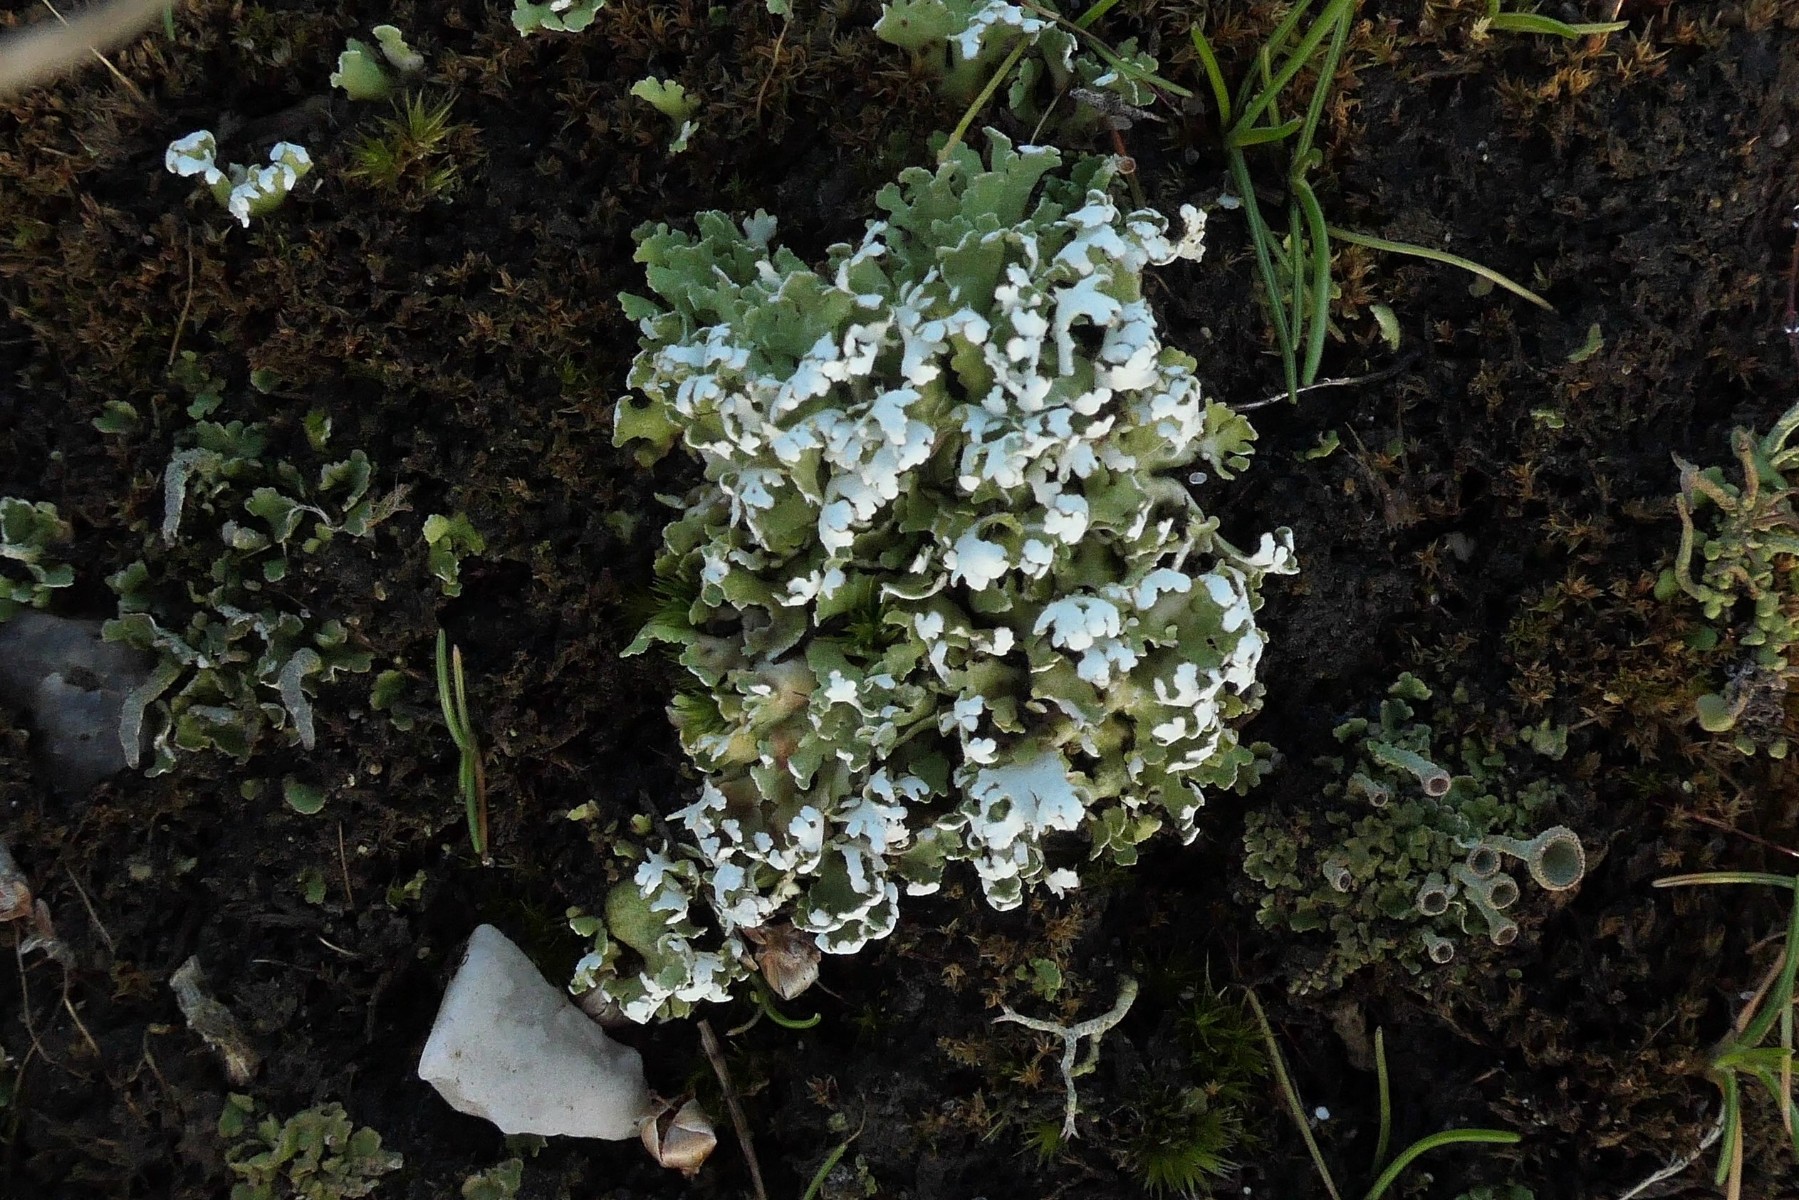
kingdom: Fungi
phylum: Ascomycota
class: Lecanoromycetes
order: Lecanorales
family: Cladoniaceae
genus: Cladonia
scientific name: Cladonia foliacea
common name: fliget bægerlav
